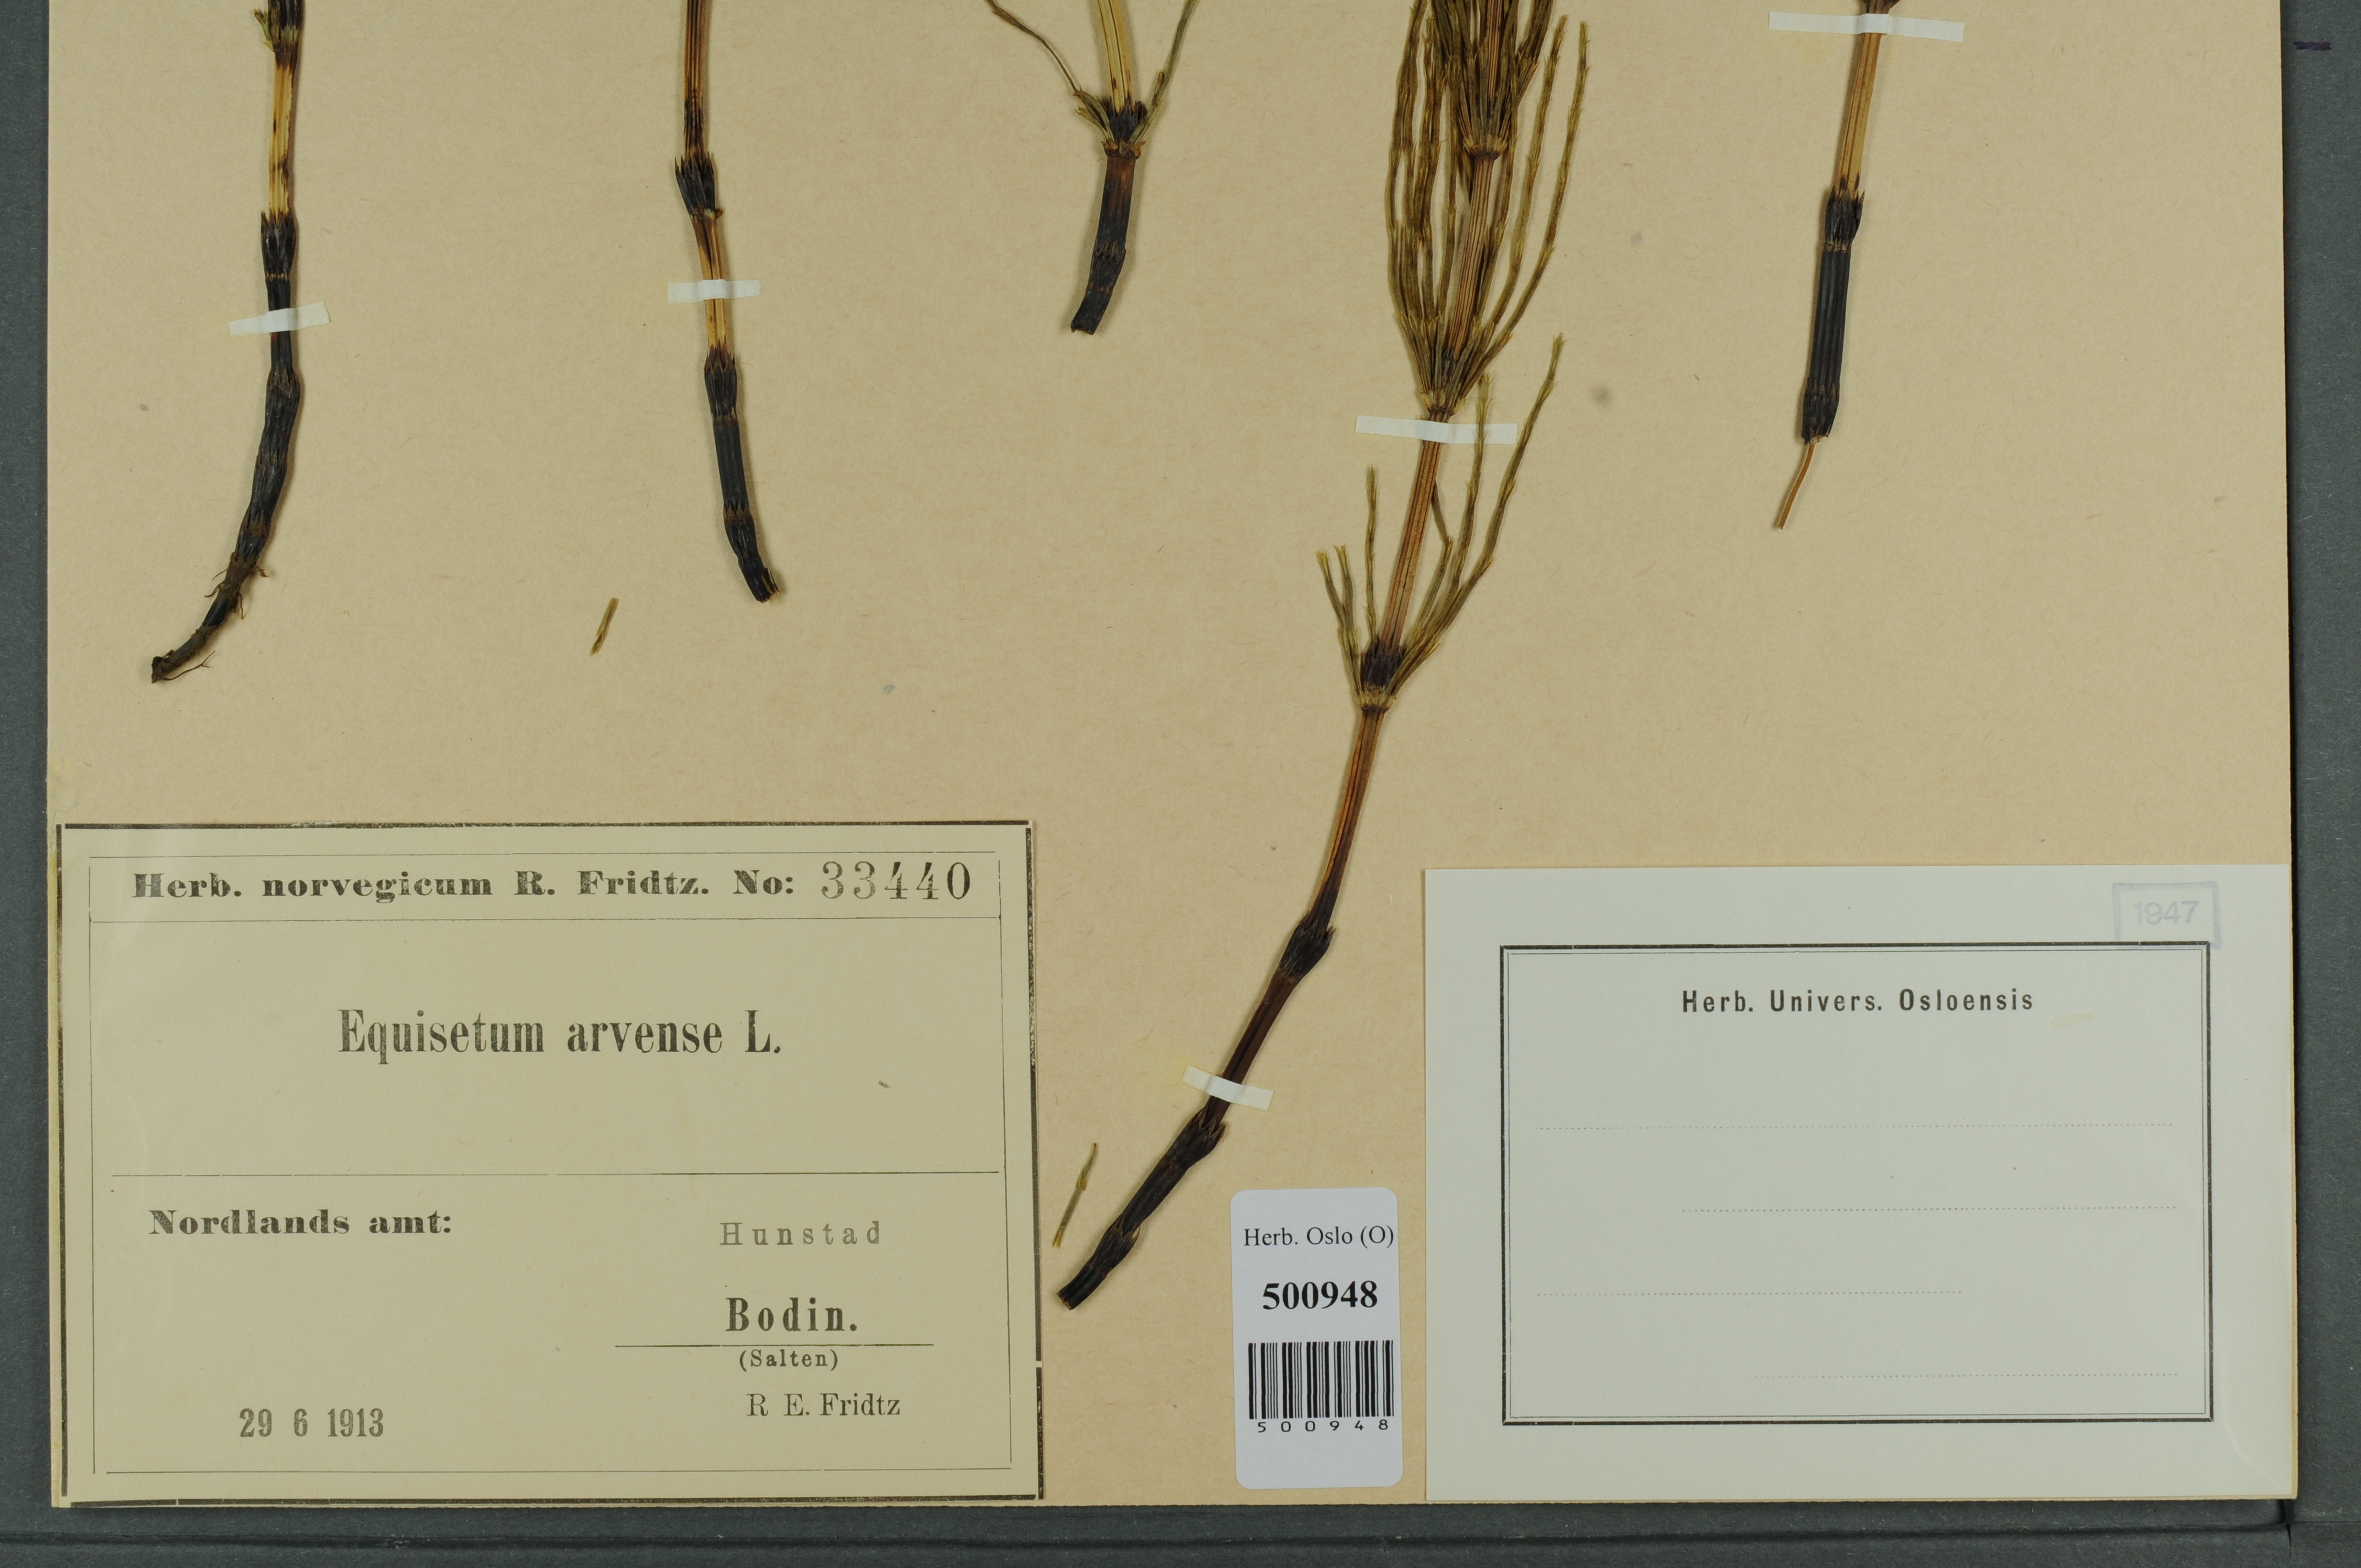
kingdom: Plantae
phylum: Tracheophyta
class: Polypodiopsida
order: Equisetales
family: Equisetaceae
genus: Equisetum
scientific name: Equisetum arvense
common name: Field horsetail
